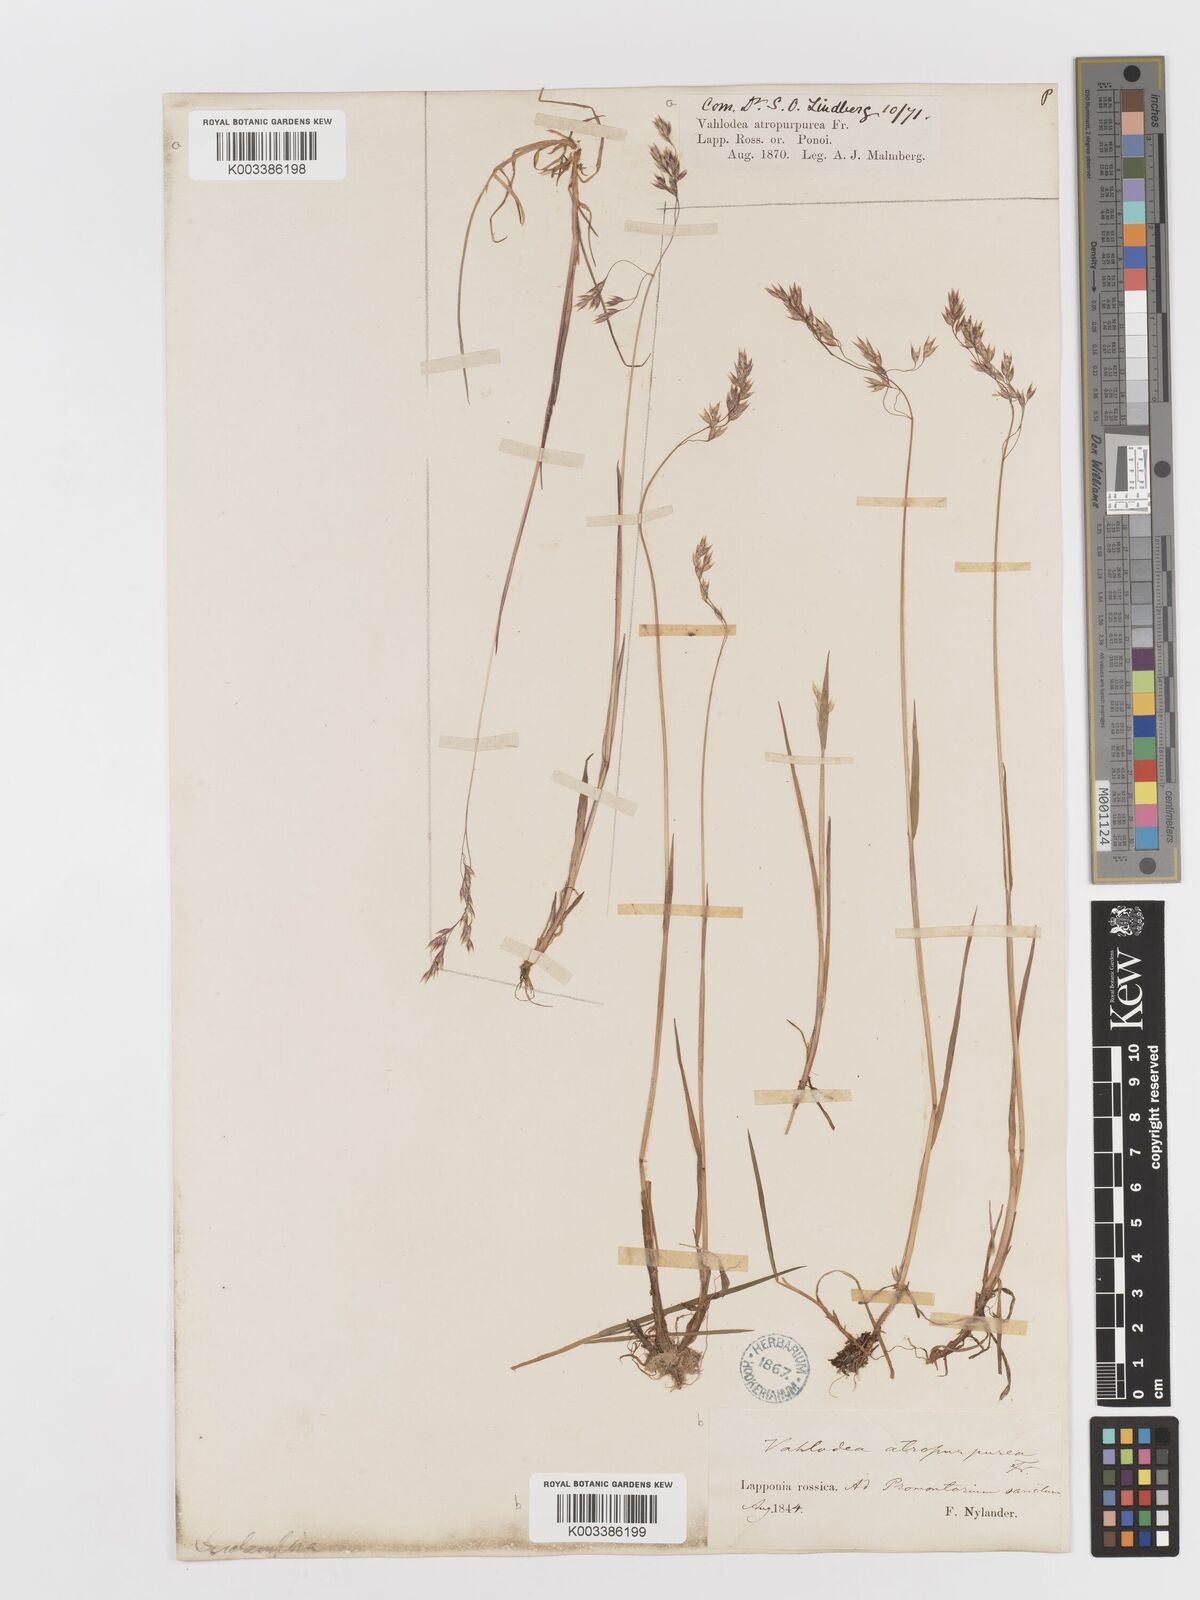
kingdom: Plantae
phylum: Tracheophyta
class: Liliopsida
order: Poales
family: Poaceae
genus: Vahlodea
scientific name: Vahlodea atropurpurea
